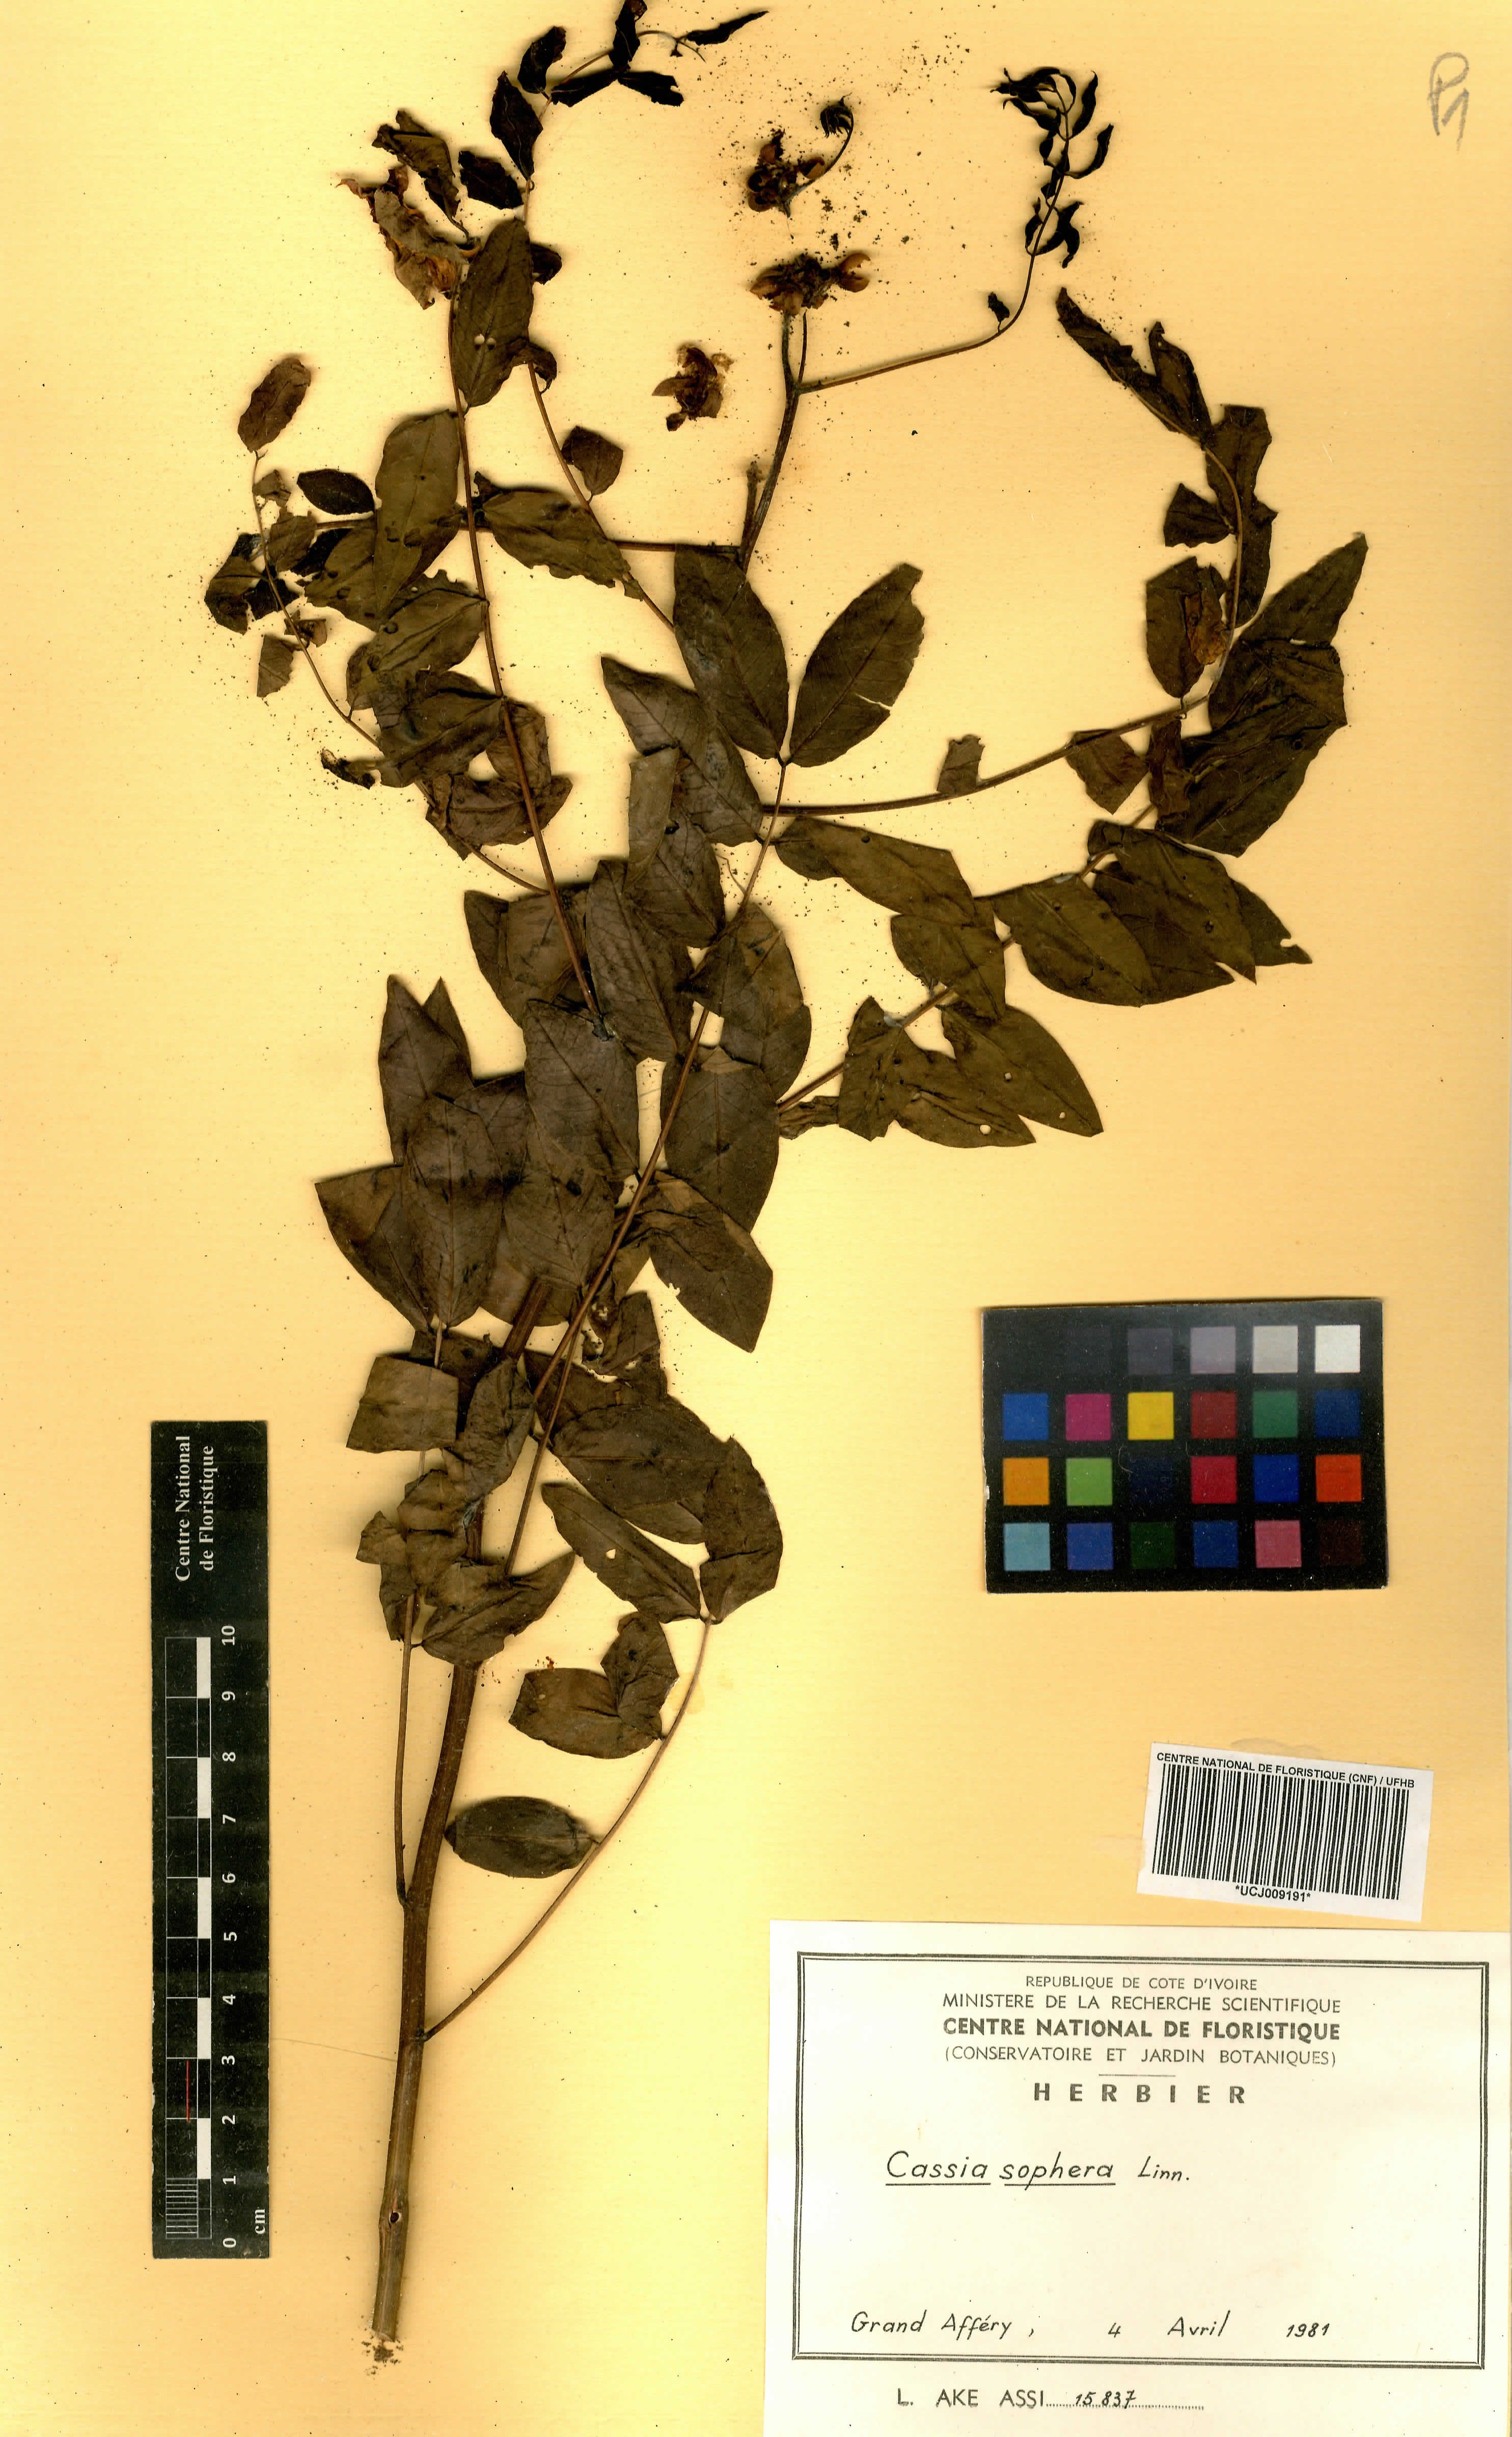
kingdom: Plantae
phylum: Tracheophyta
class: Magnoliopsida
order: Fabales
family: Fabaceae
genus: Senna
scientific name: Senna sophera
